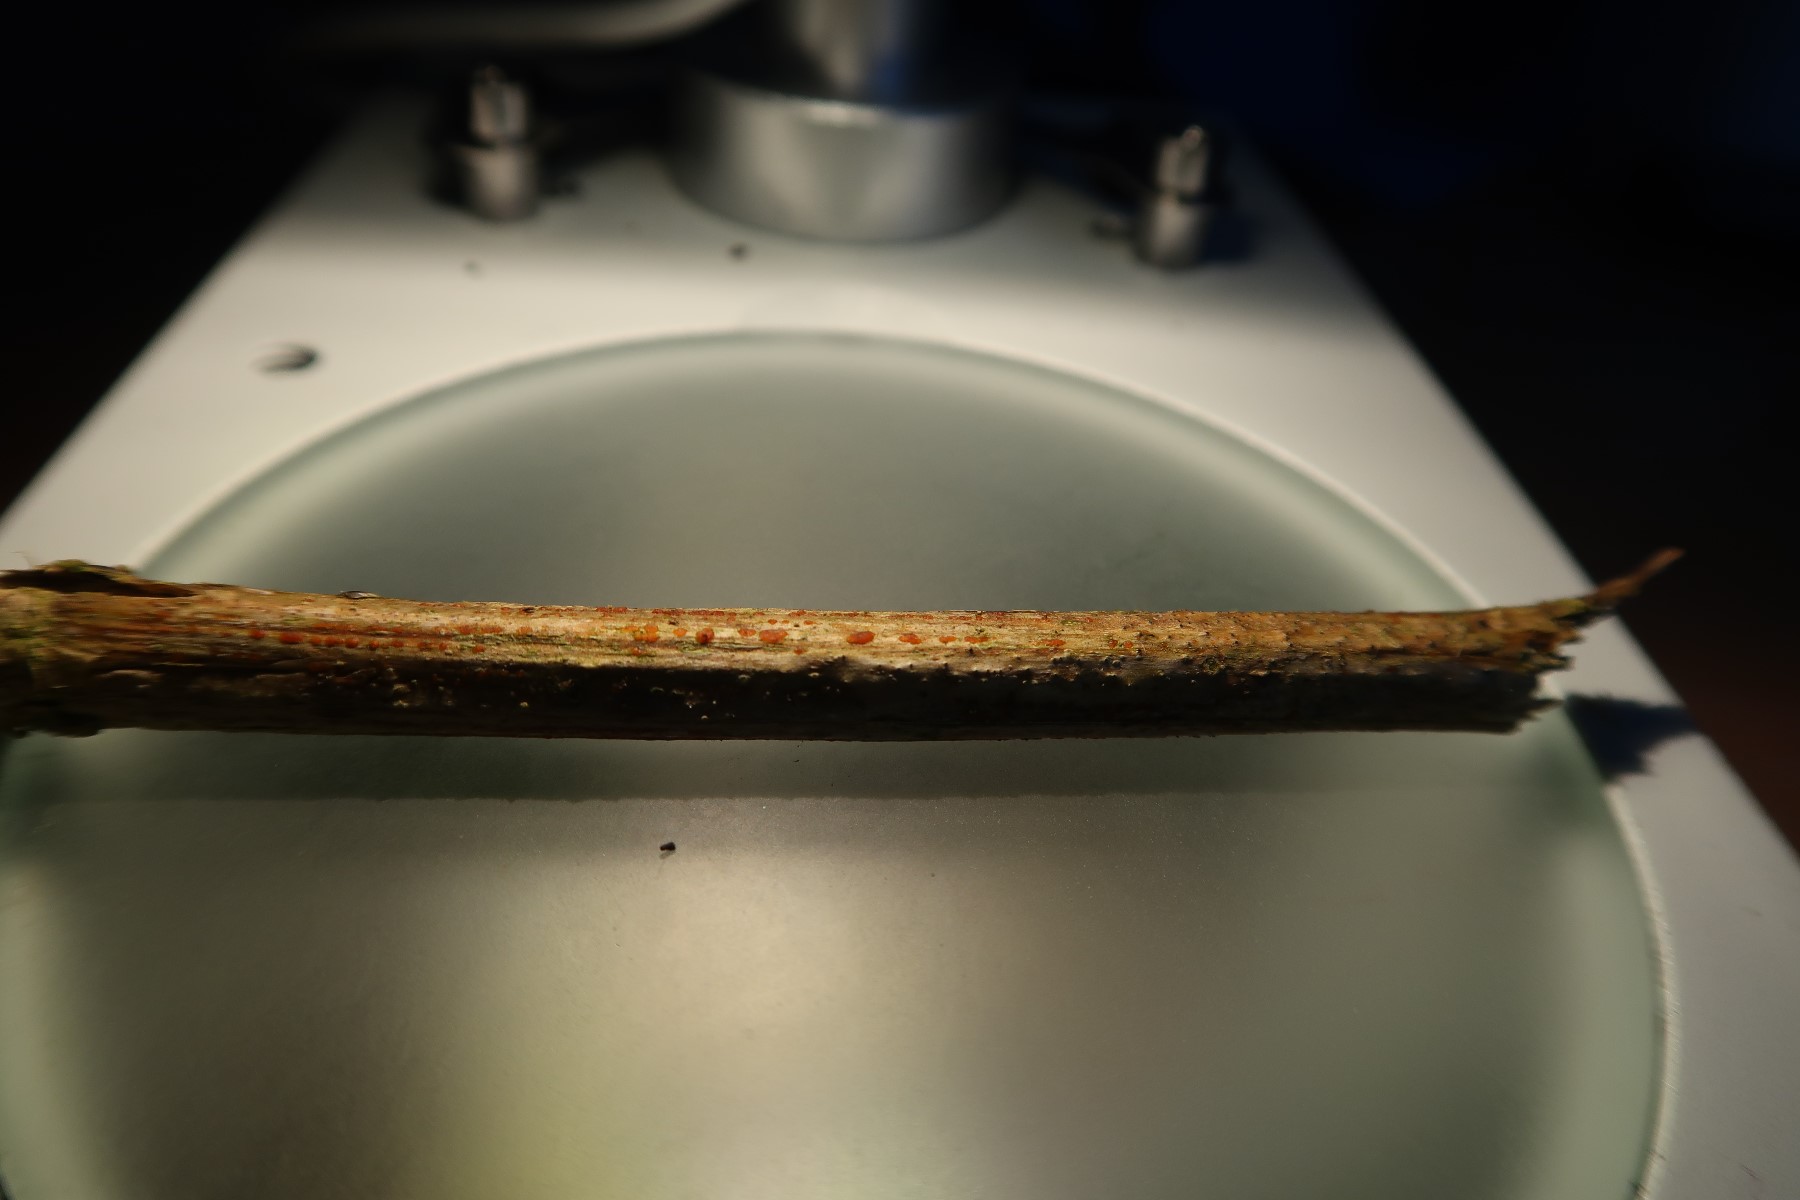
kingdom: Fungi
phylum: Ascomycota
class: Leotiomycetes
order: Helotiales
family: Calloriaceae
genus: Calloria
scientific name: Calloria urticae
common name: nælde-orangeskive
